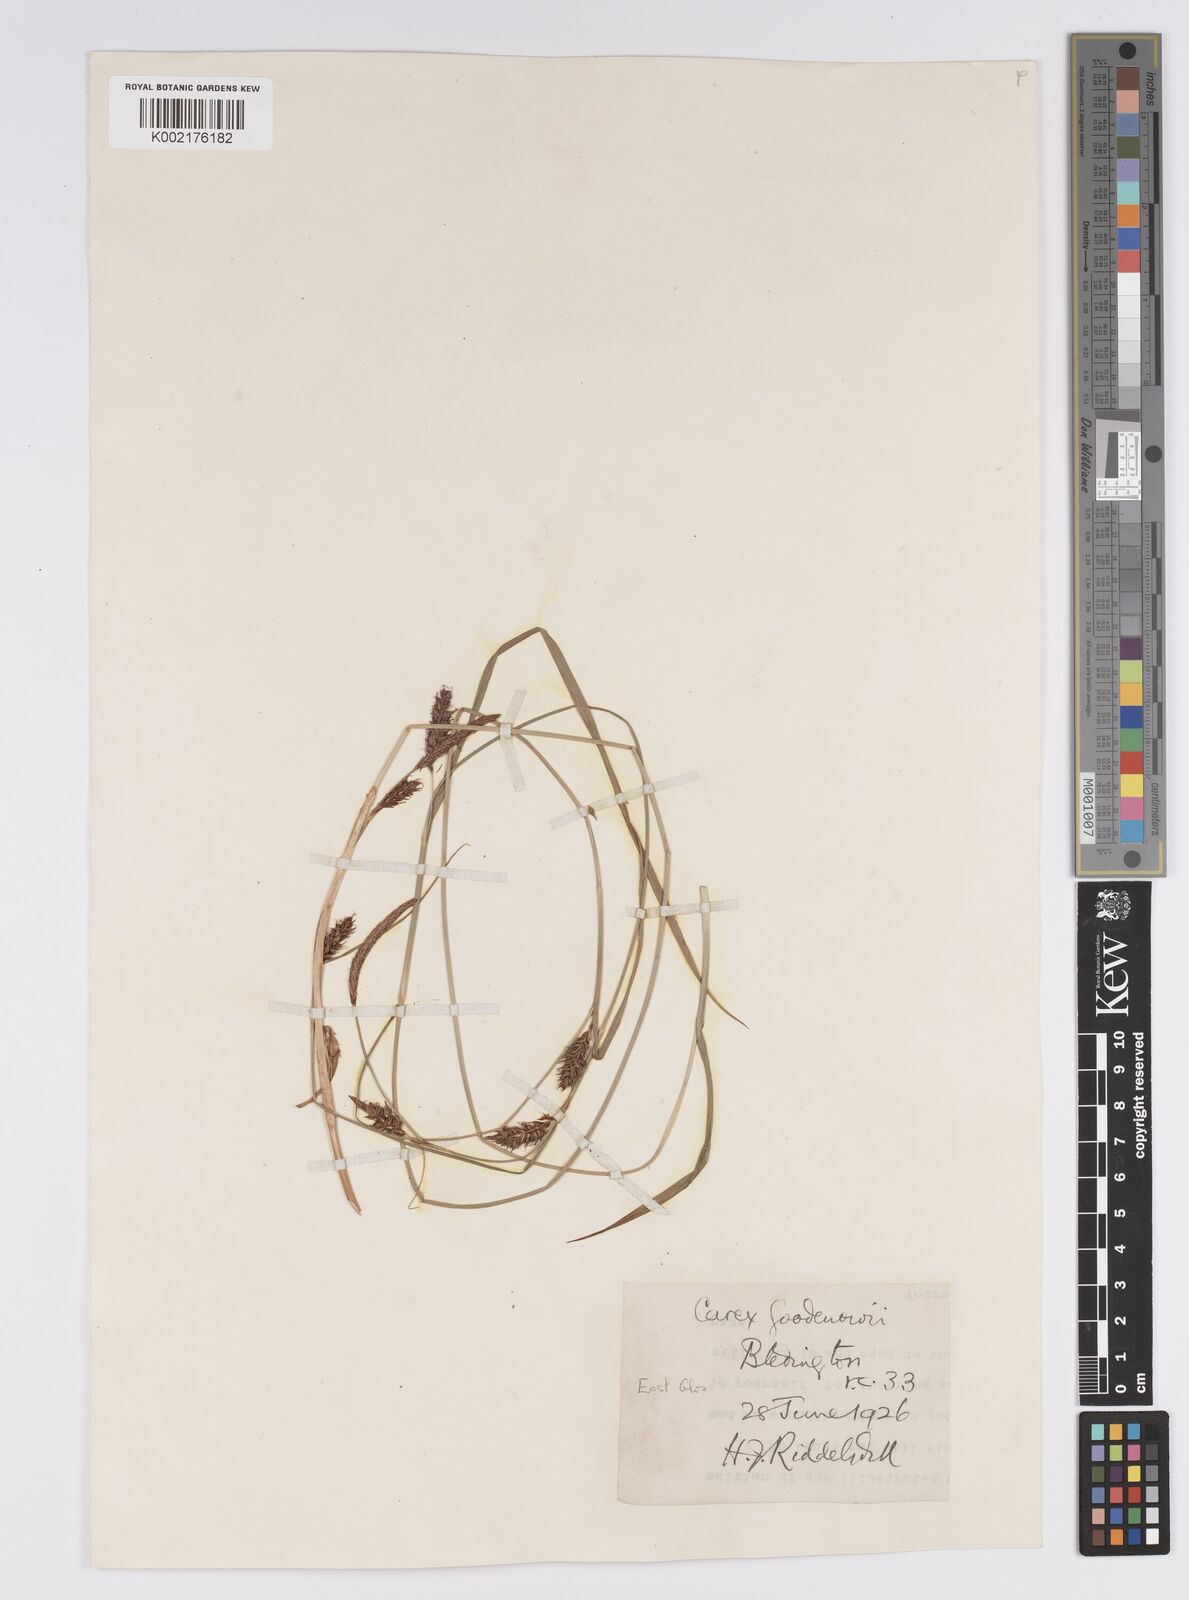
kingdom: Plantae
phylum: Tracheophyta
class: Liliopsida
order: Poales
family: Cyperaceae
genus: Carex
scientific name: Carex distans
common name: Distant sedge
